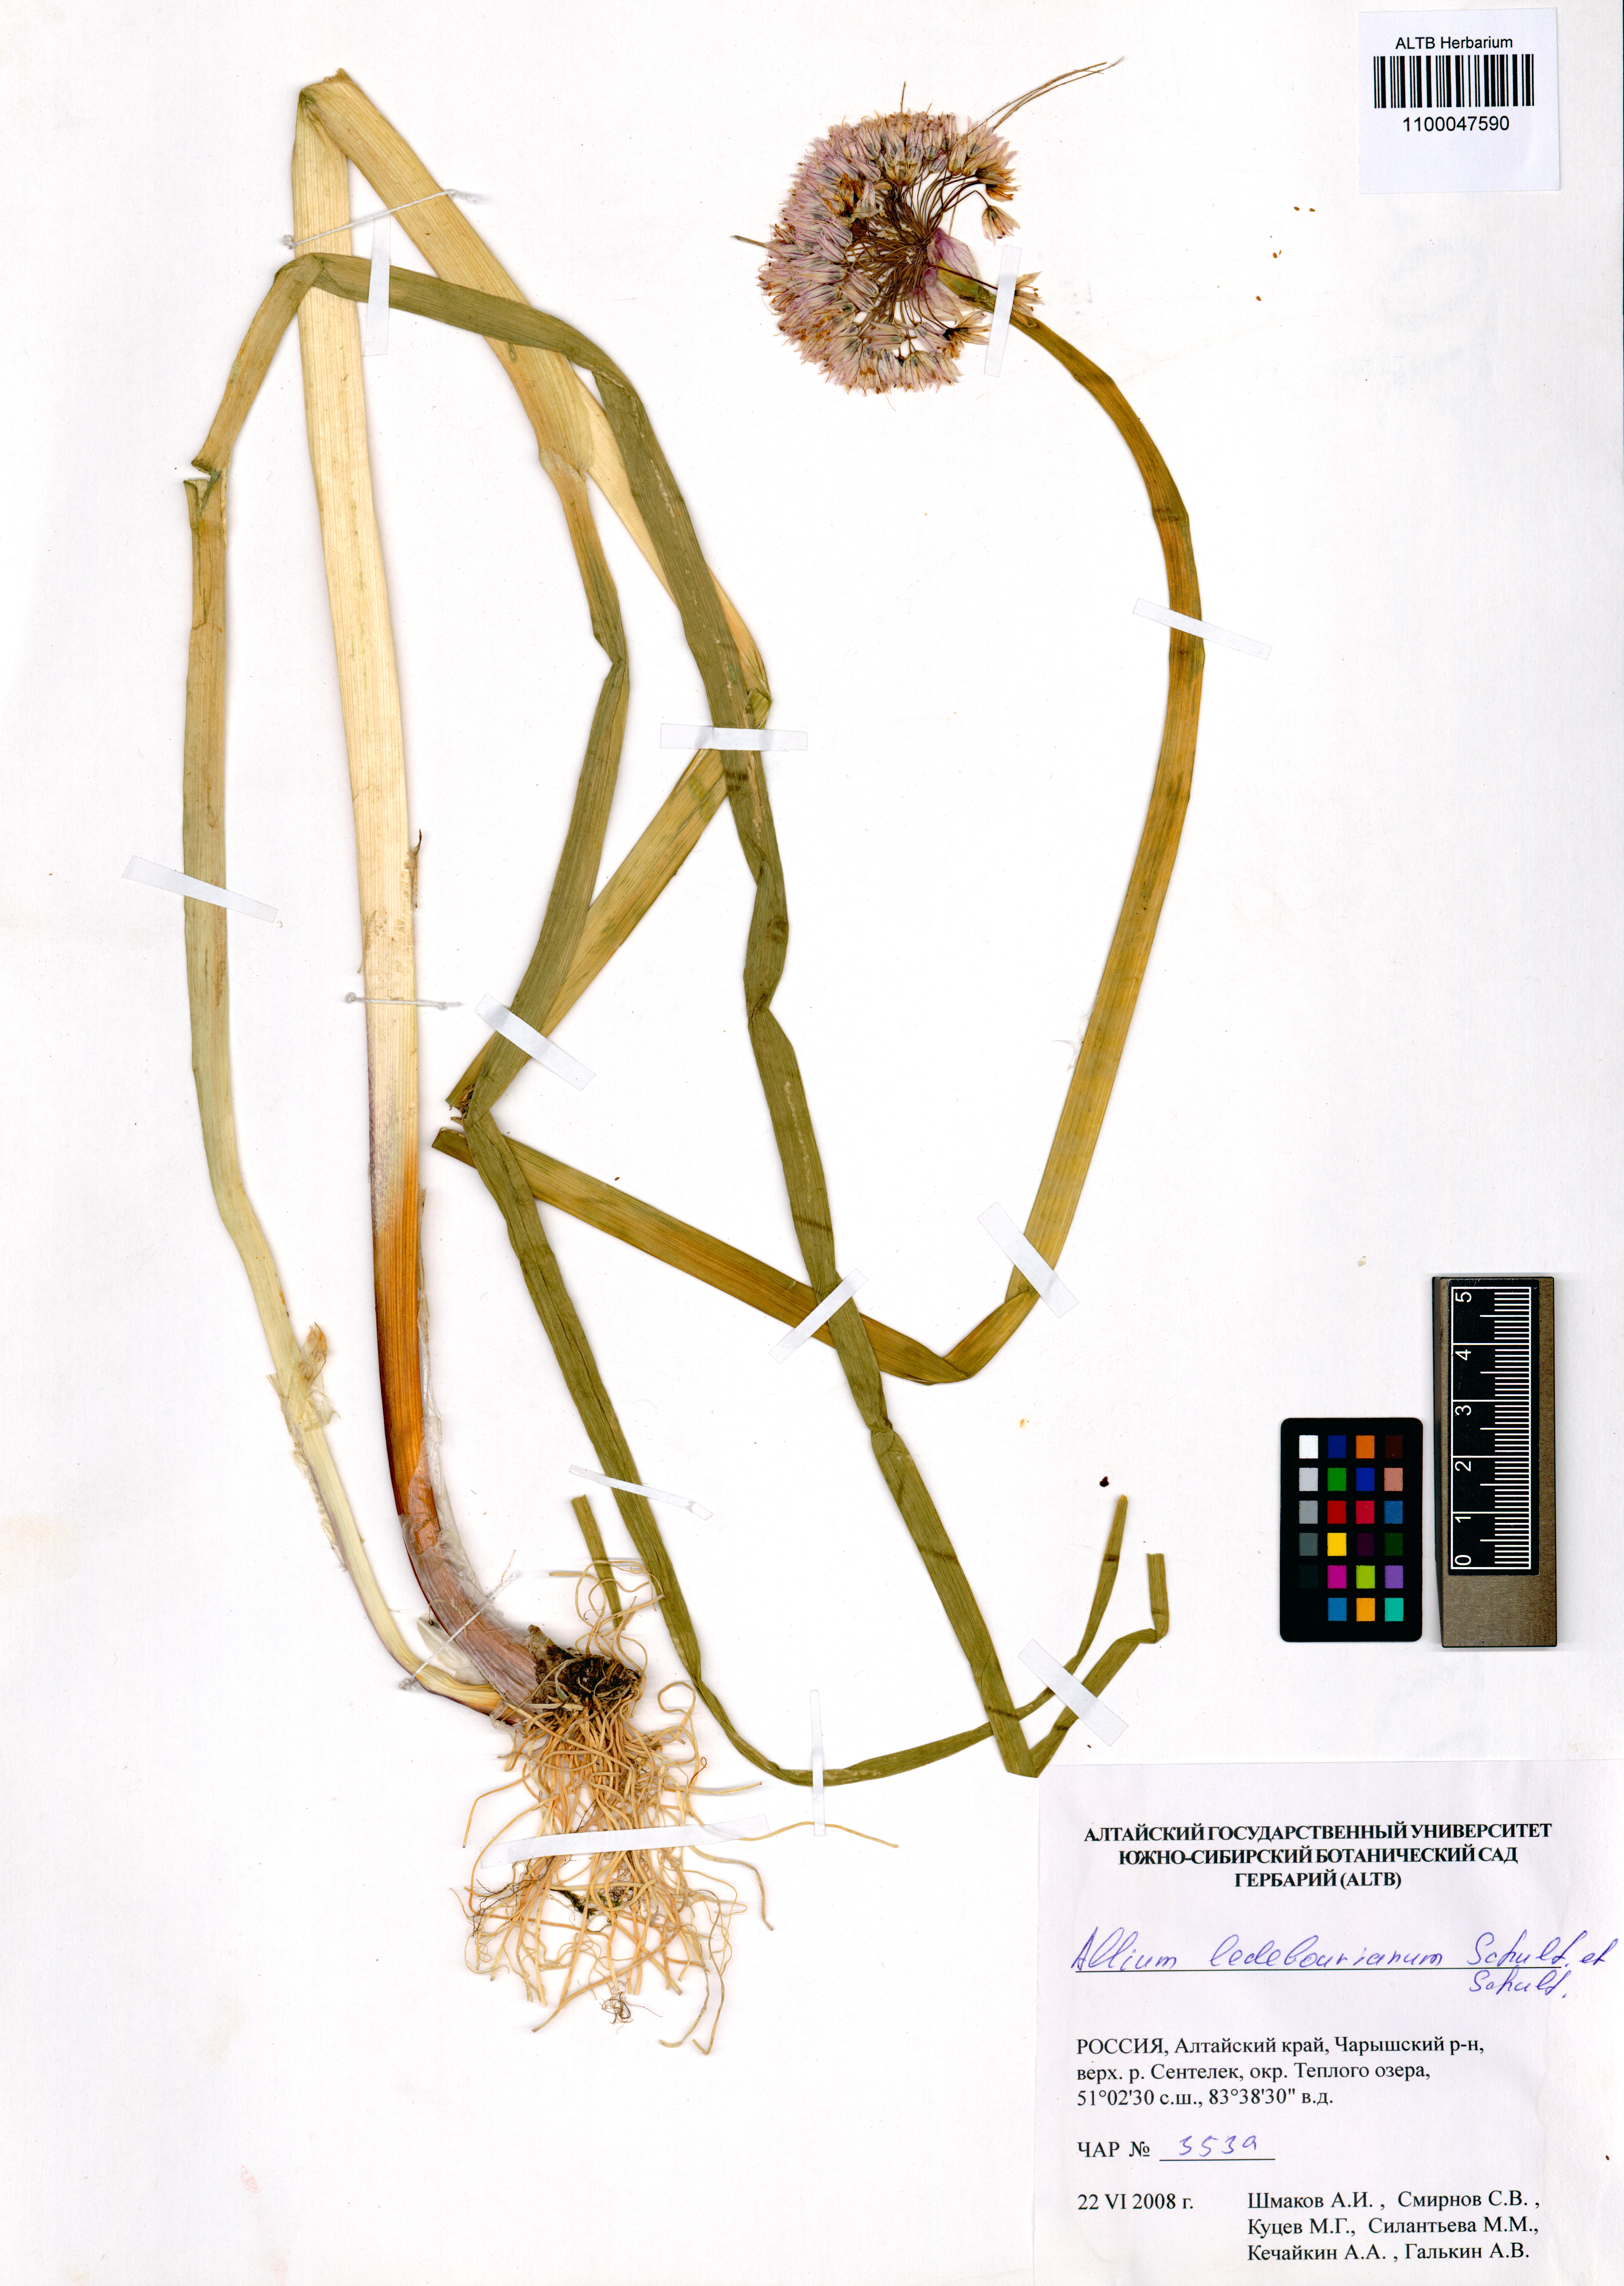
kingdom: Plantae
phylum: Tracheophyta
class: Liliopsida
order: Asparagales
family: Amaryllidaceae
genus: Allium
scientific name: Allium ledebourianum
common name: Ledebour chive
